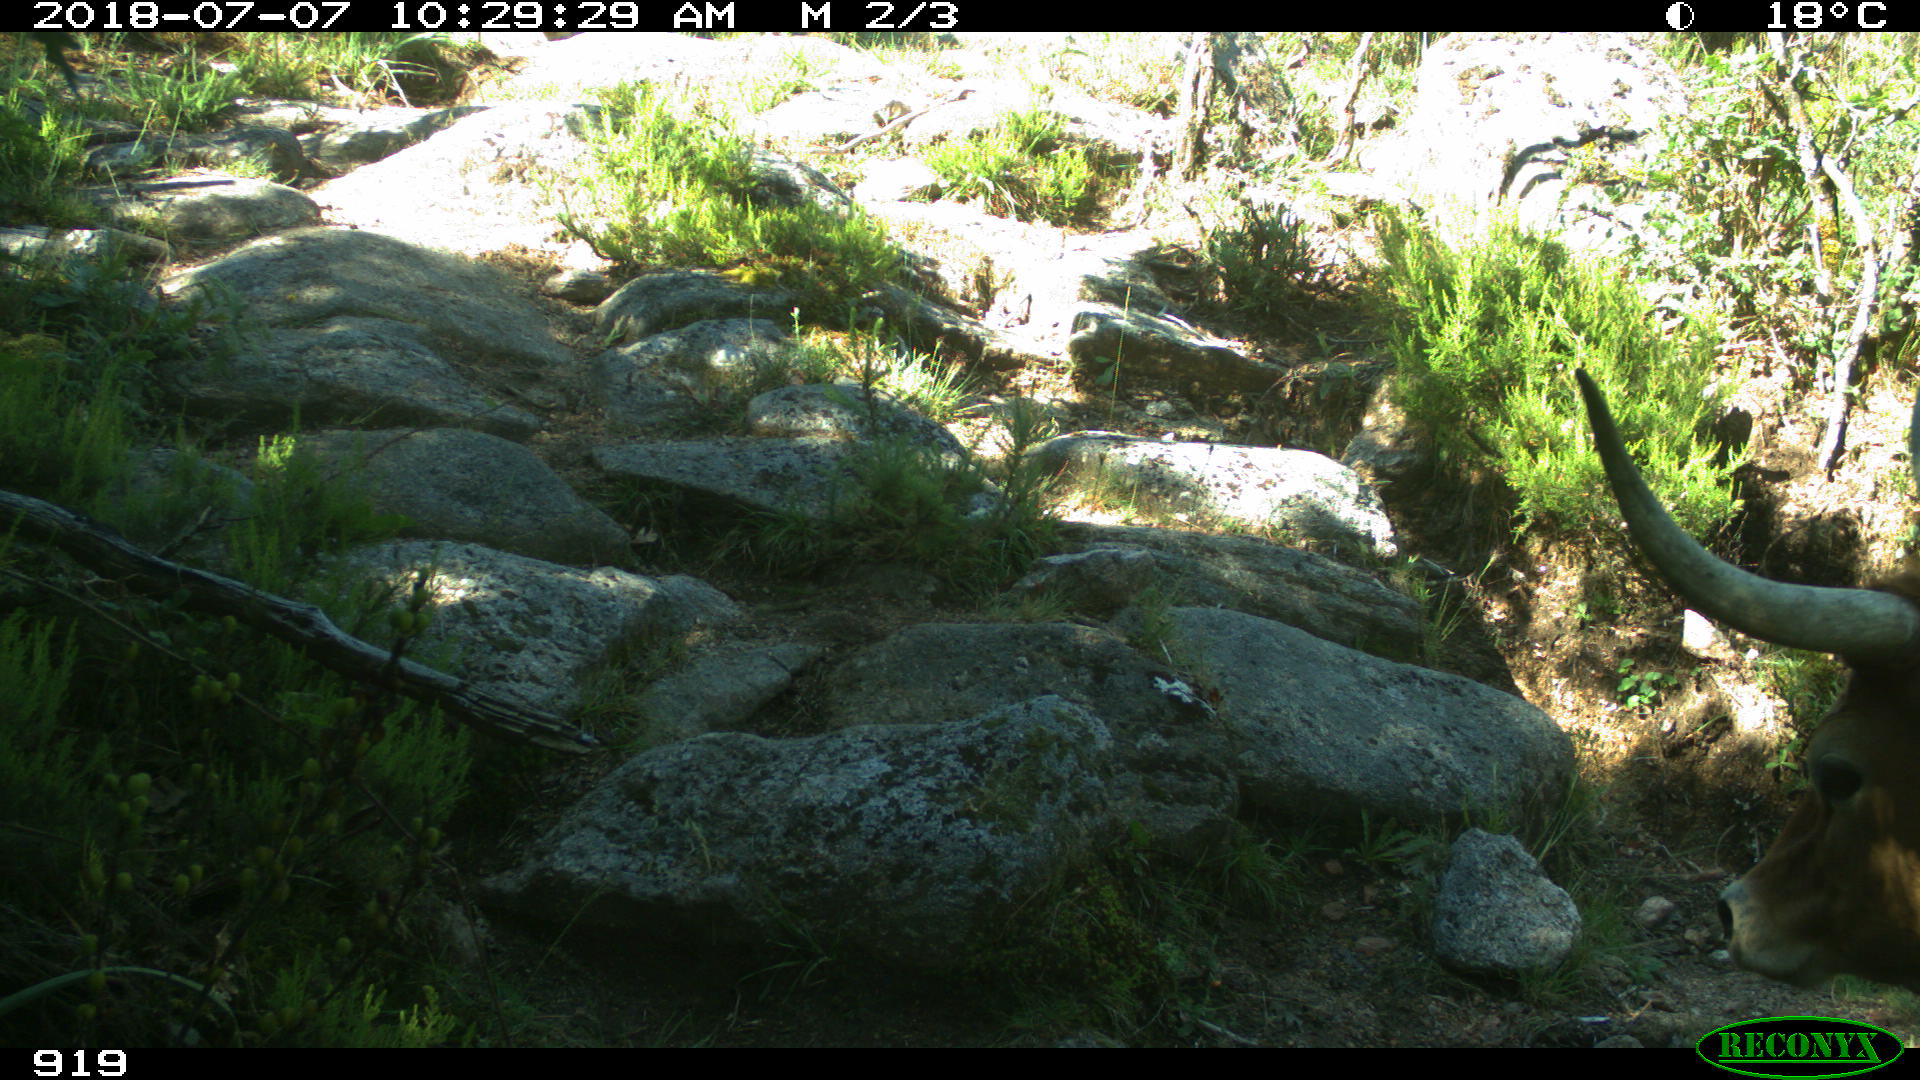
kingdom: Animalia
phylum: Chordata
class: Mammalia
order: Artiodactyla
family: Bovidae
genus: Bos
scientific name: Bos taurus
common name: Domesticated cattle
